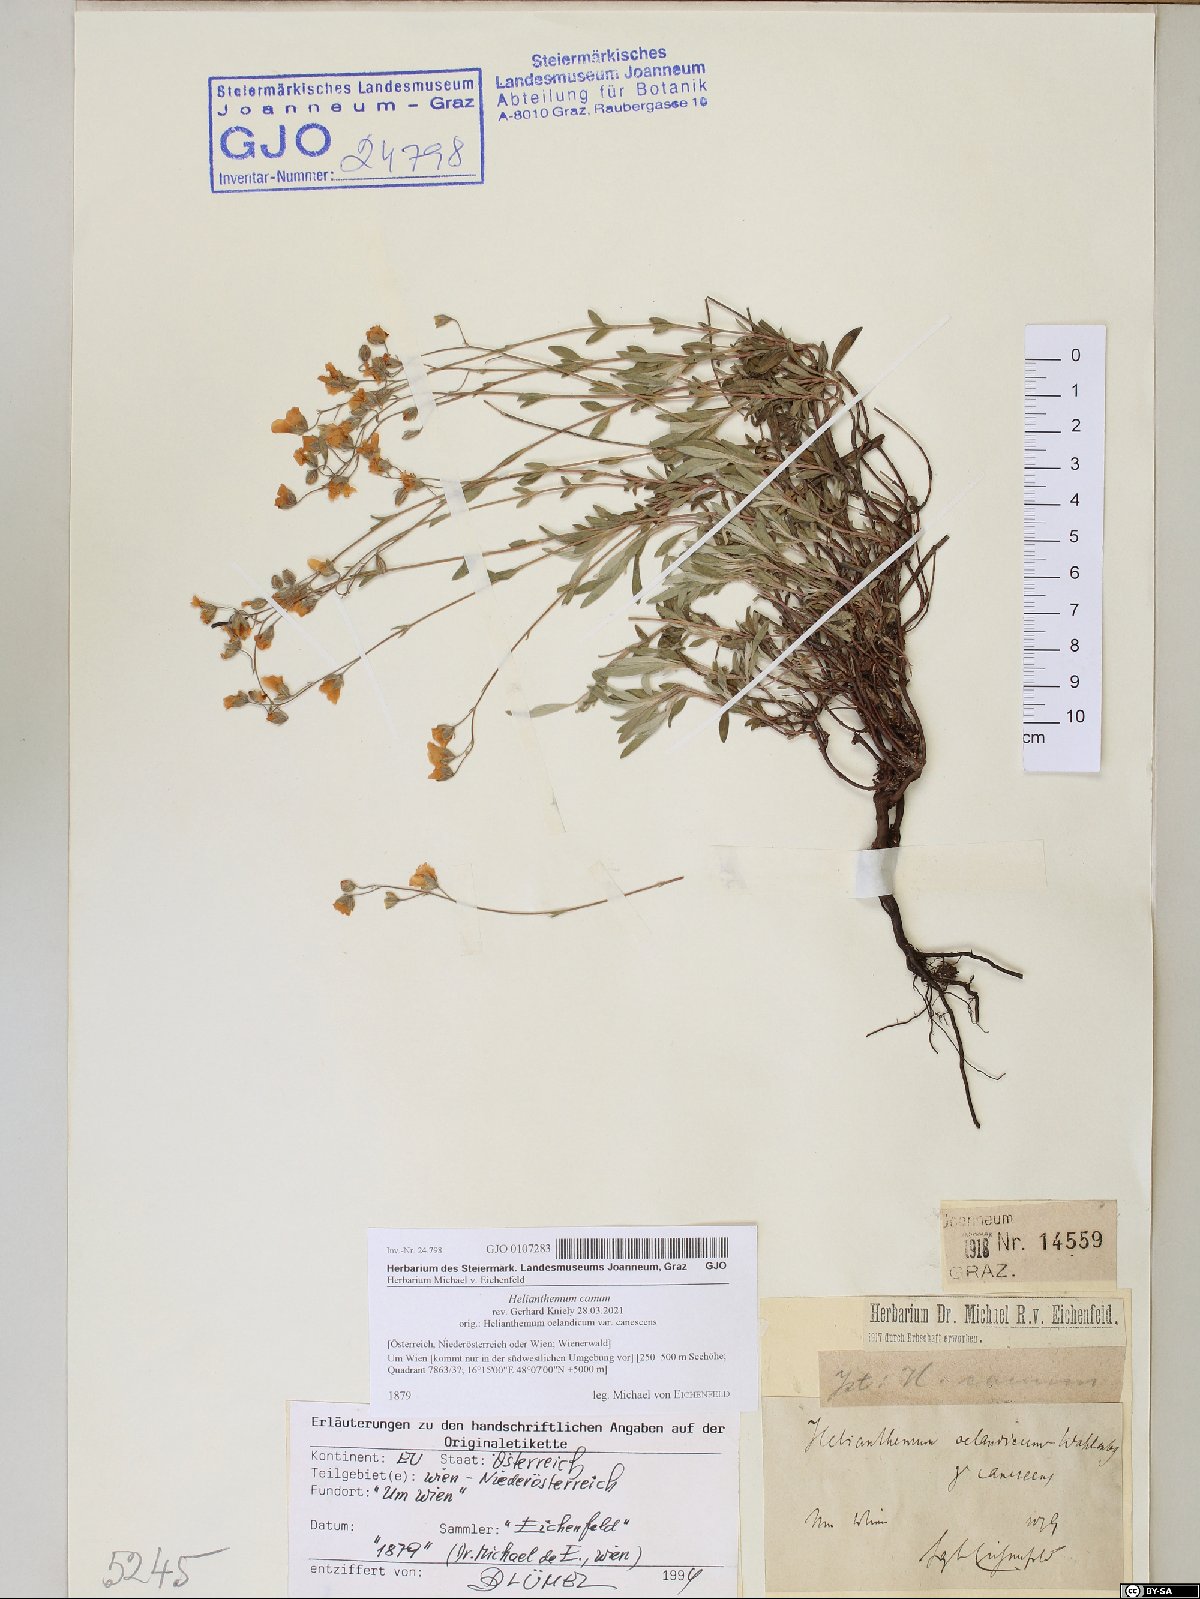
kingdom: Plantae
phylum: Tracheophyta
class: Magnoliopsida
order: Malvales
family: Cistaceae
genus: Helianthemum
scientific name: Helianthemum canum
